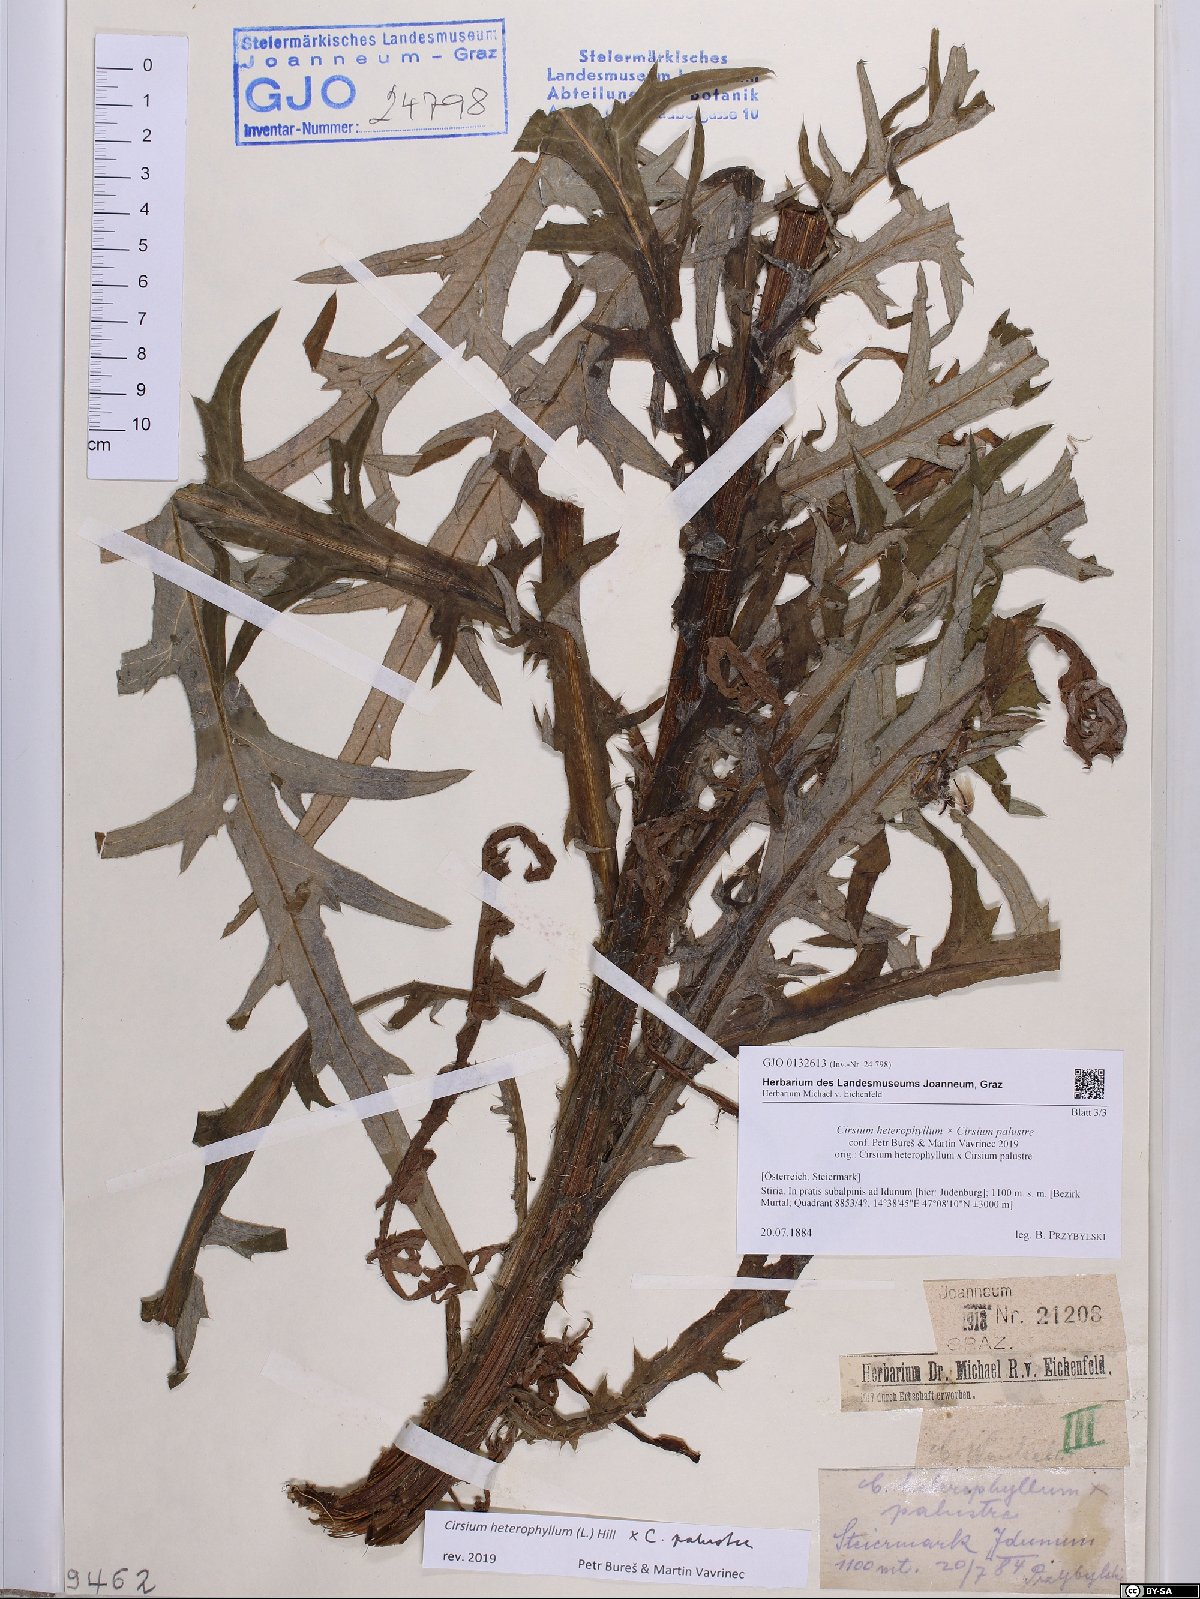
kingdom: Plantae
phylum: Tracheophyta
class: Magnoliopsida
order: Asterales
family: Asteraceae
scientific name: Asteraceae
